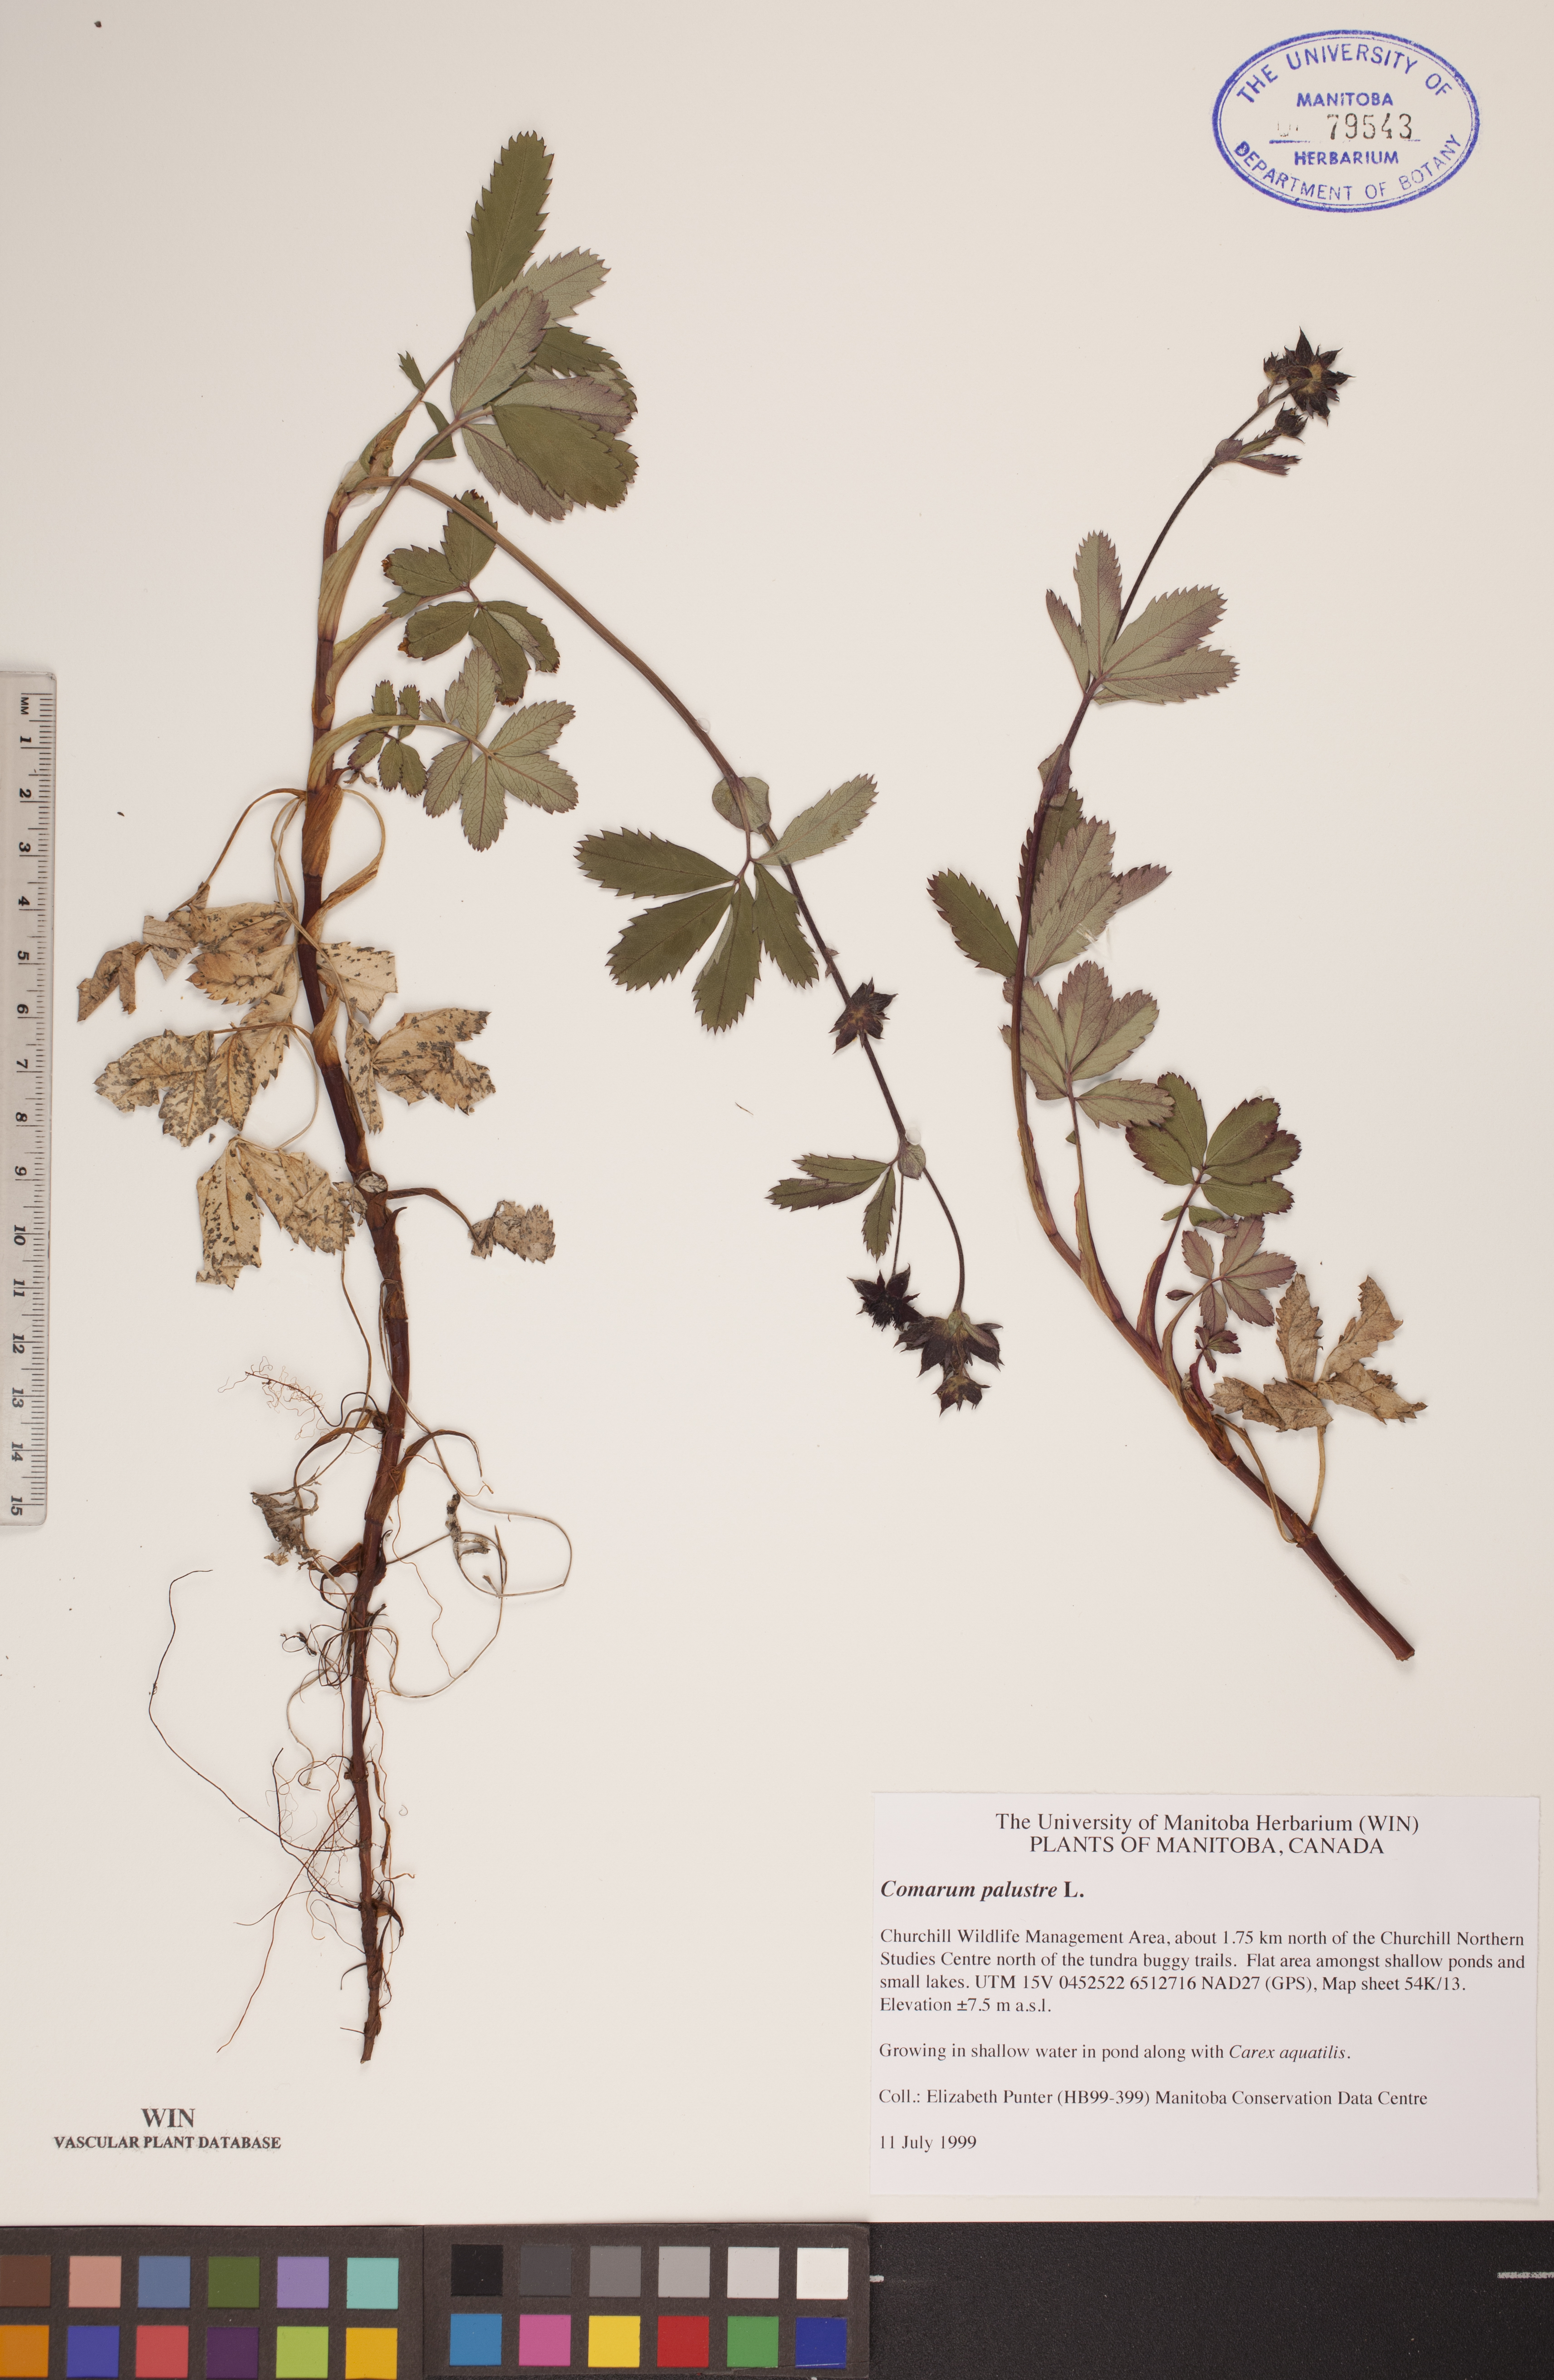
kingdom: Plantae
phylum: Tracheophyta
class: Magnoliopsida
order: Rosales
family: Rosaceae
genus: Comarum
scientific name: Comarum palustre
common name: Marsh cinquefoil
